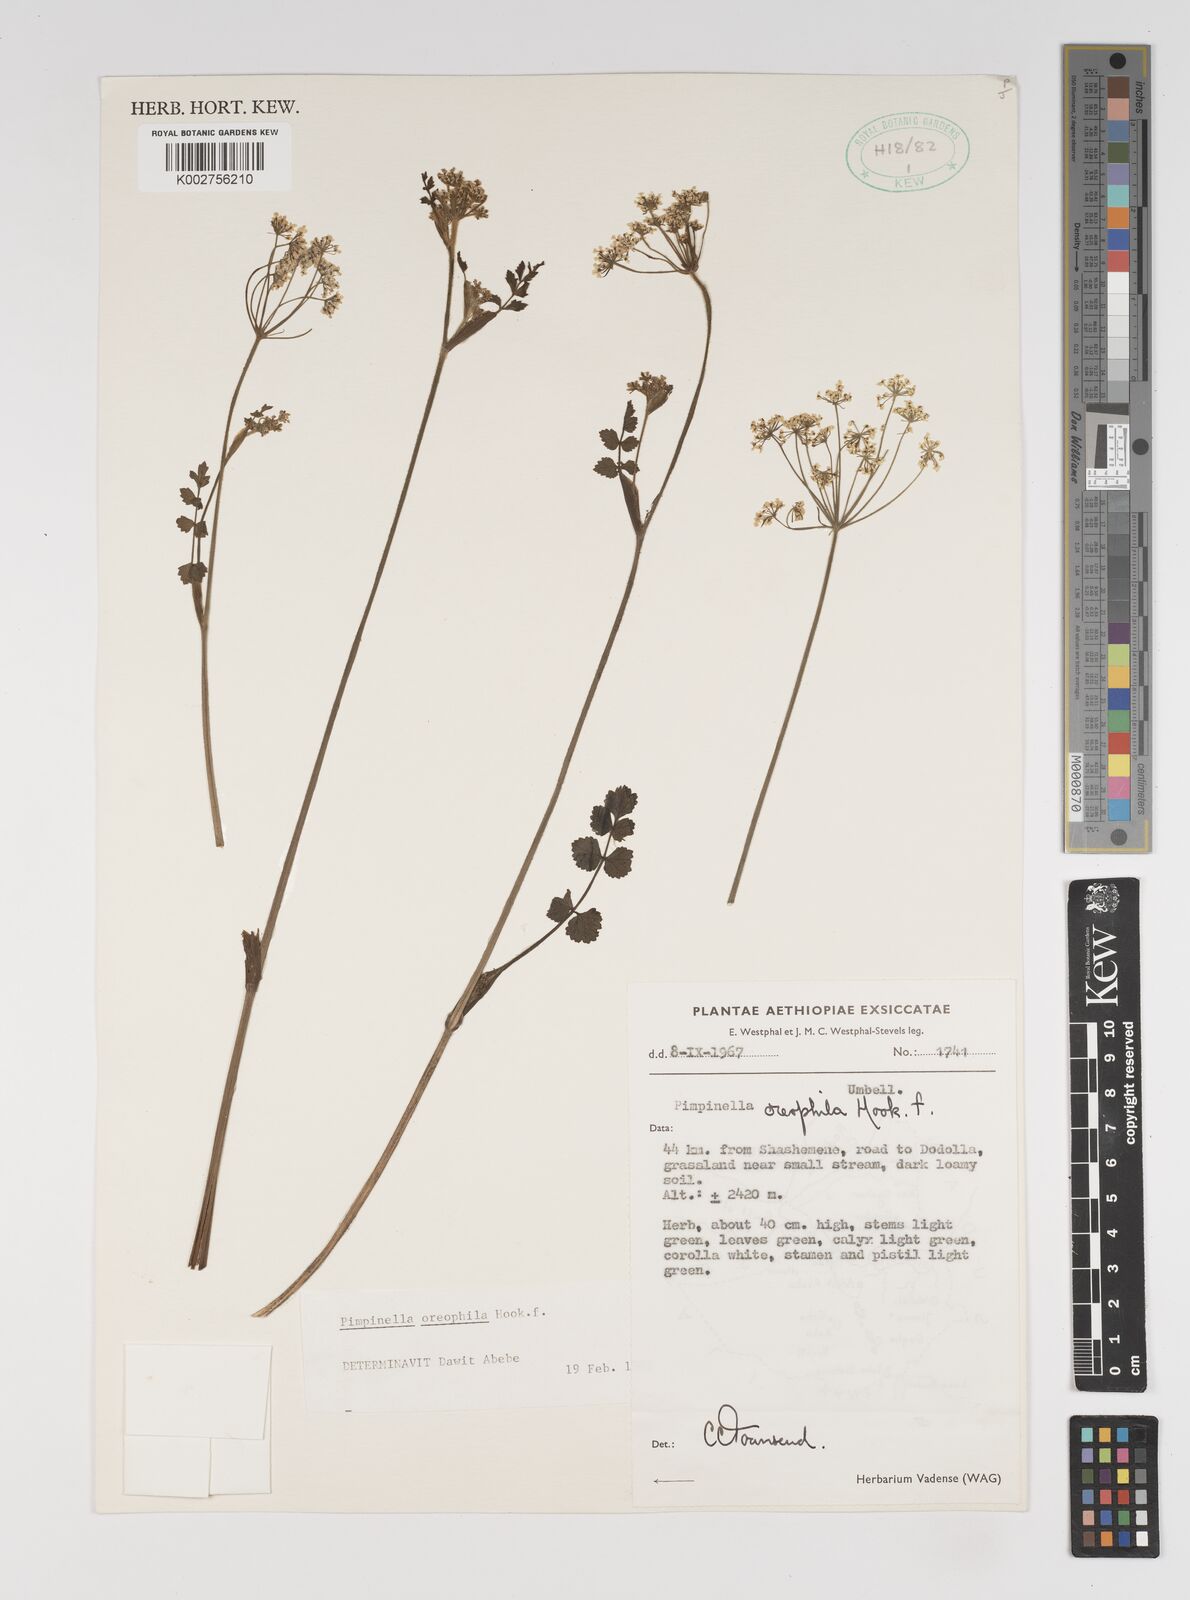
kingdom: Plantae
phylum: Tracheophyta
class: Magnoliopsida
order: Apiales
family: Apiaceae
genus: Pimpinella
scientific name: Pimpinella oreophila
